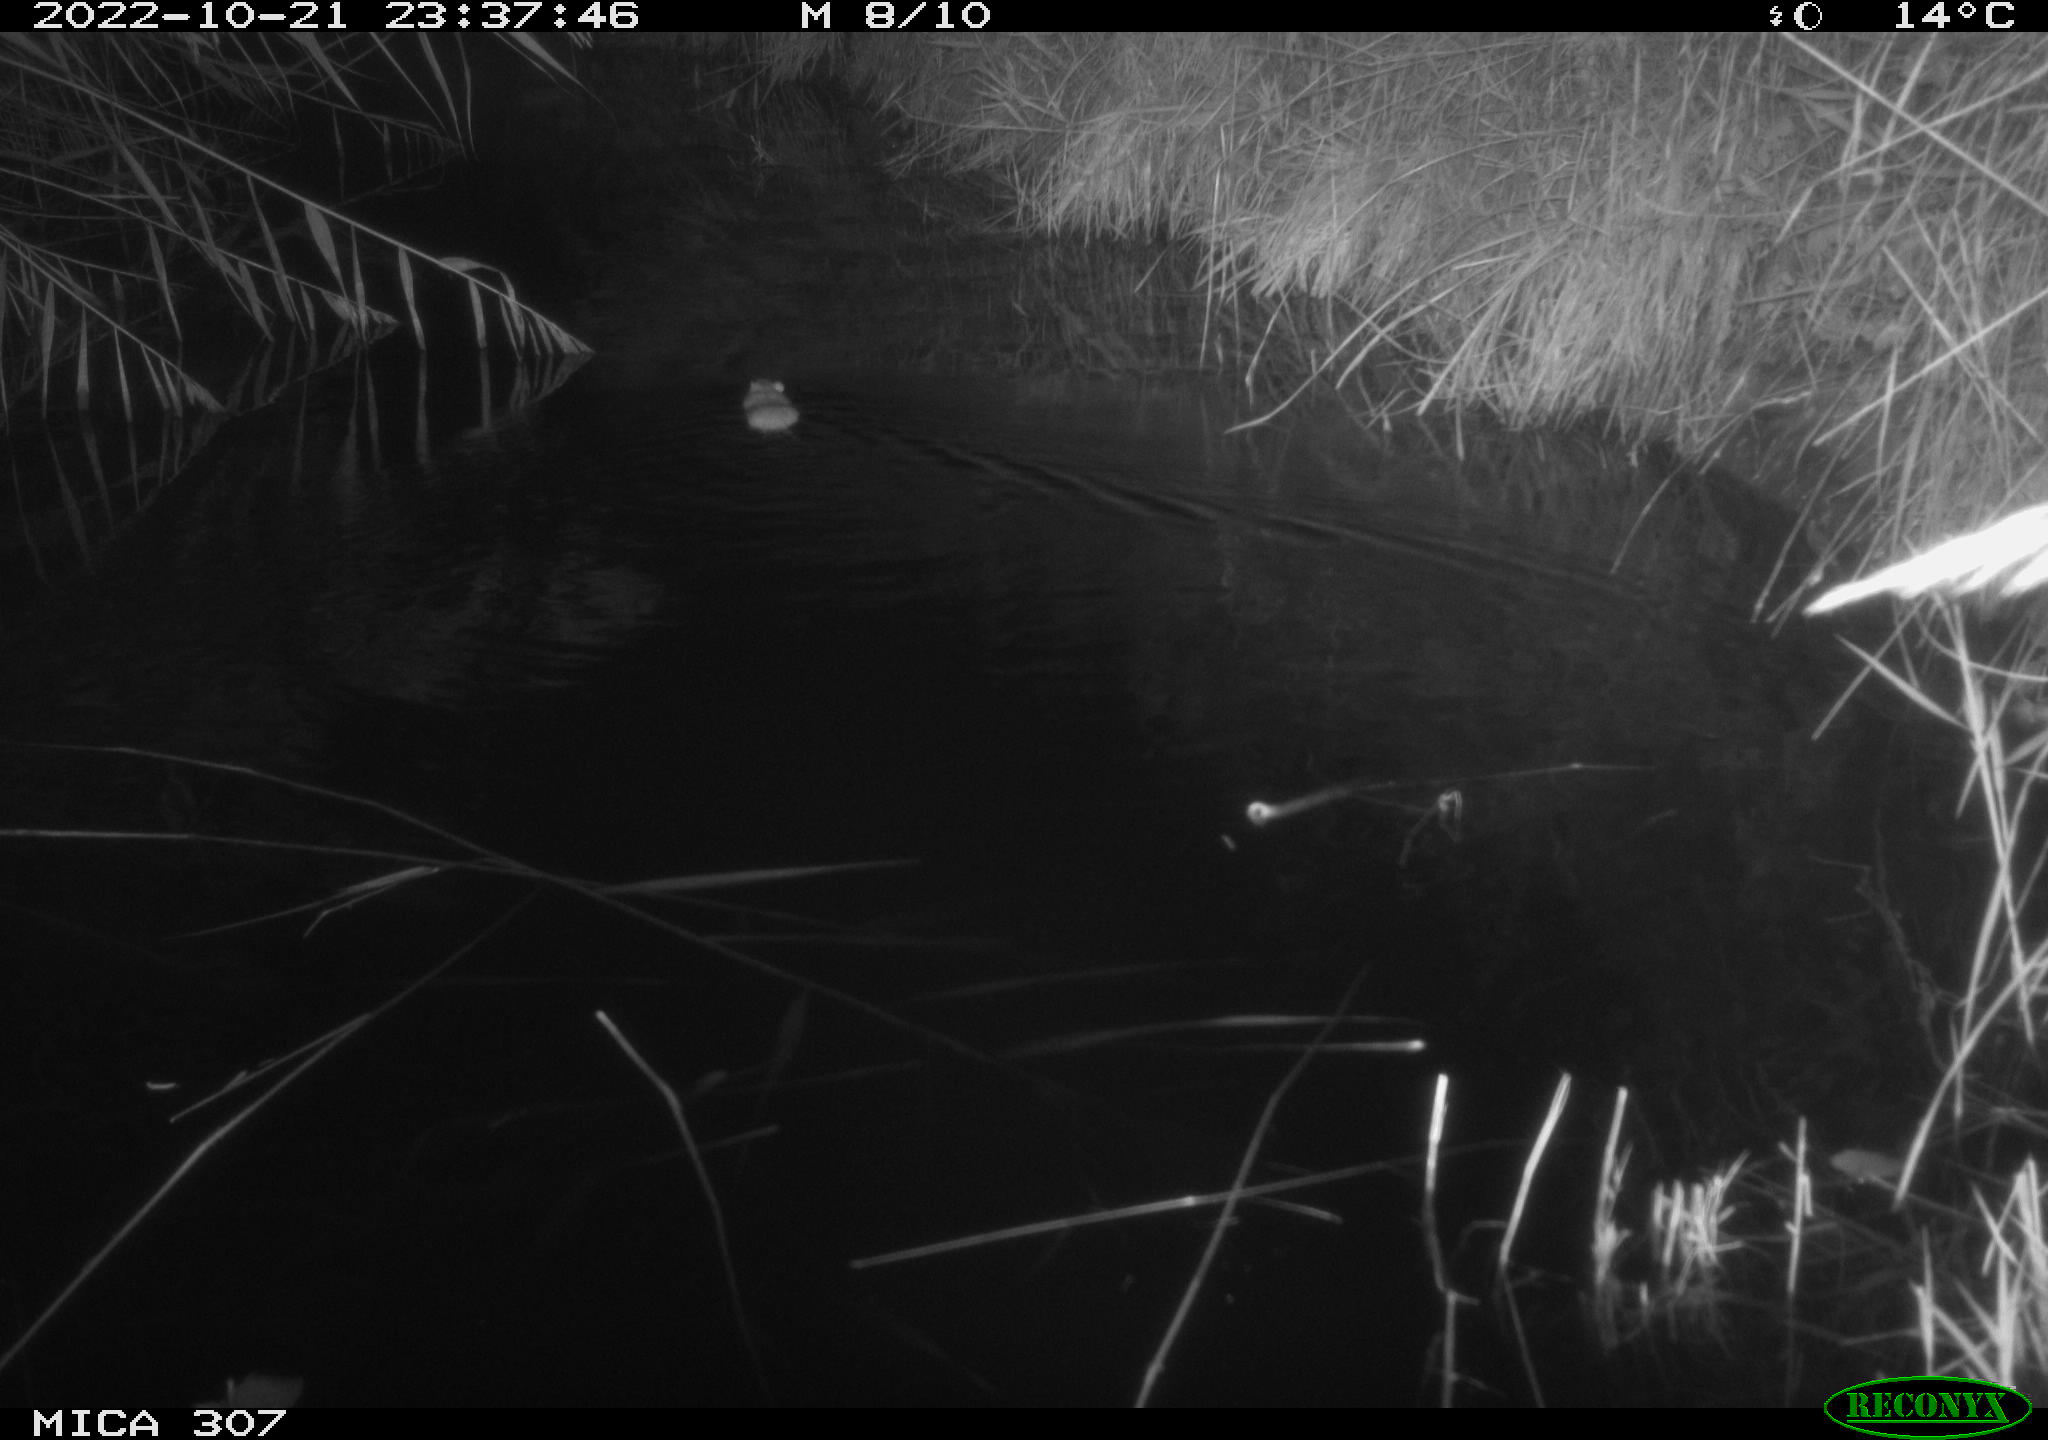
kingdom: Animalia
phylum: Chordata
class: Mammalia
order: Rodentia
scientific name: Rodentia
